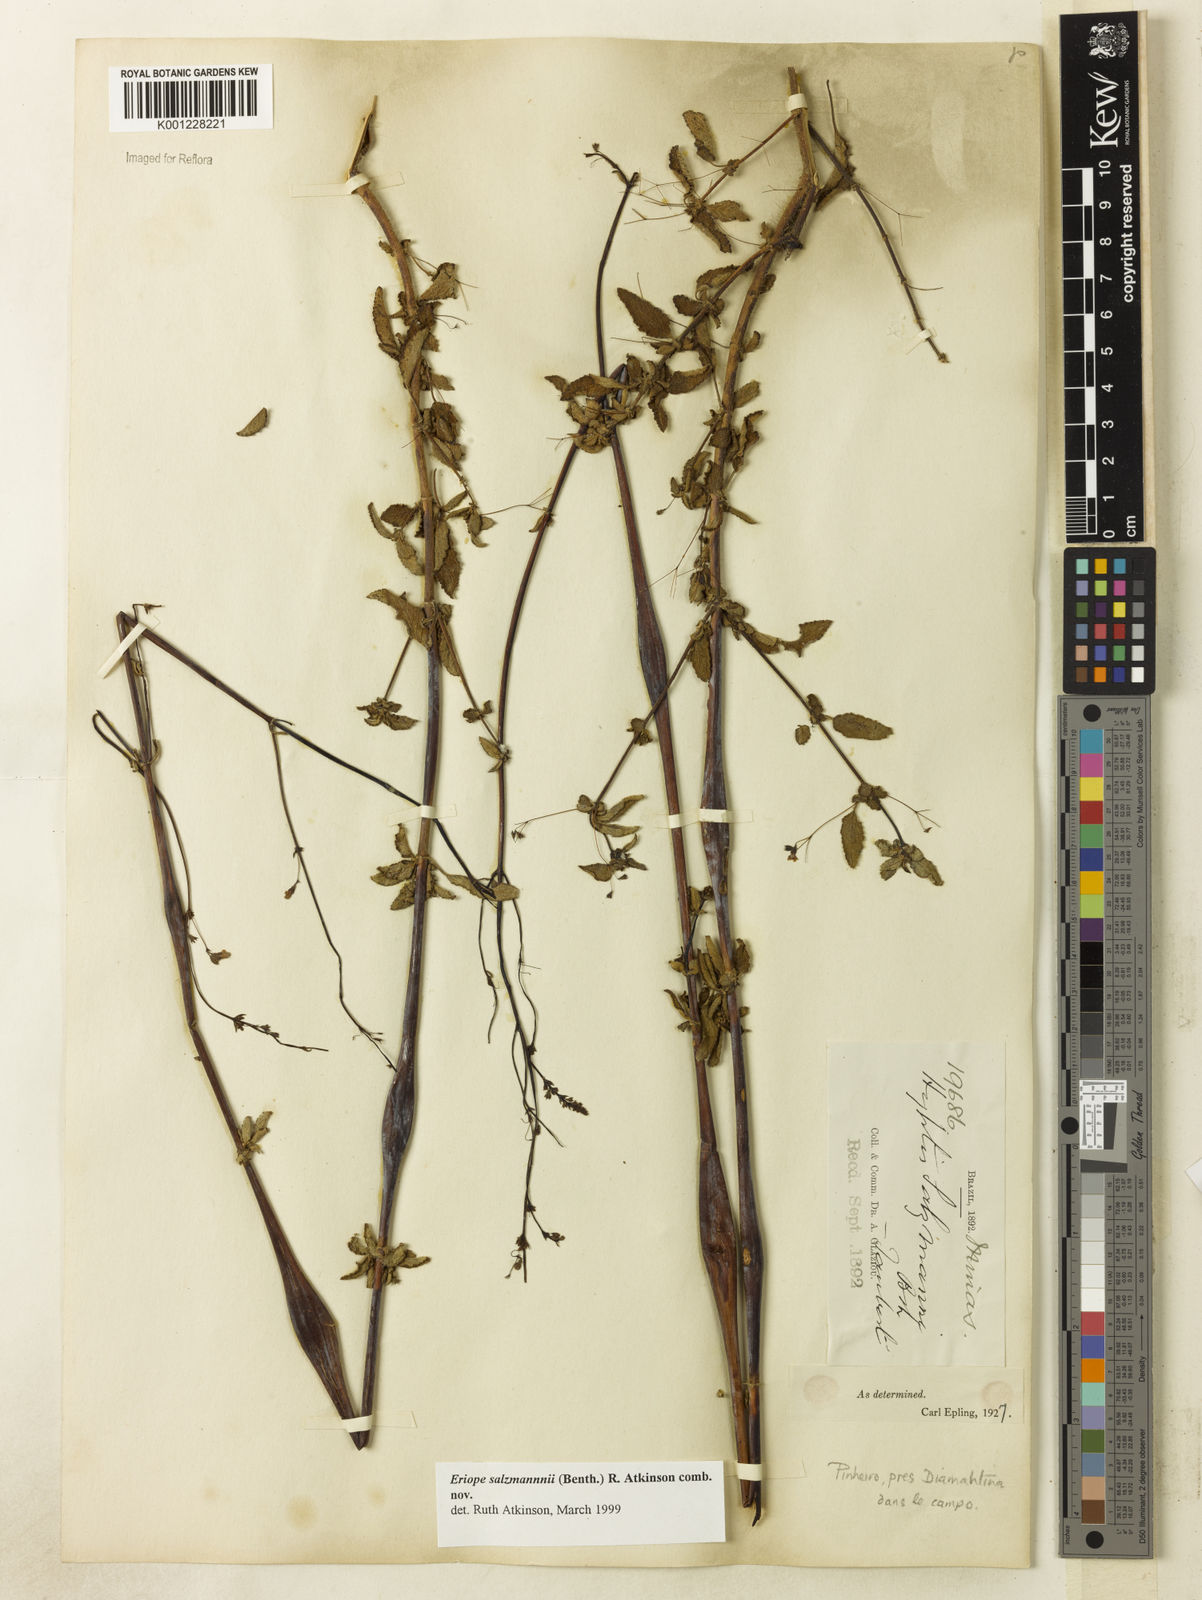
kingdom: Plantae
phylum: Tracheophyta
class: Magnoliopsida
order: Lamiales
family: Lamiaceae
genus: Hypenia
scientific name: Hypenia salzmannii
